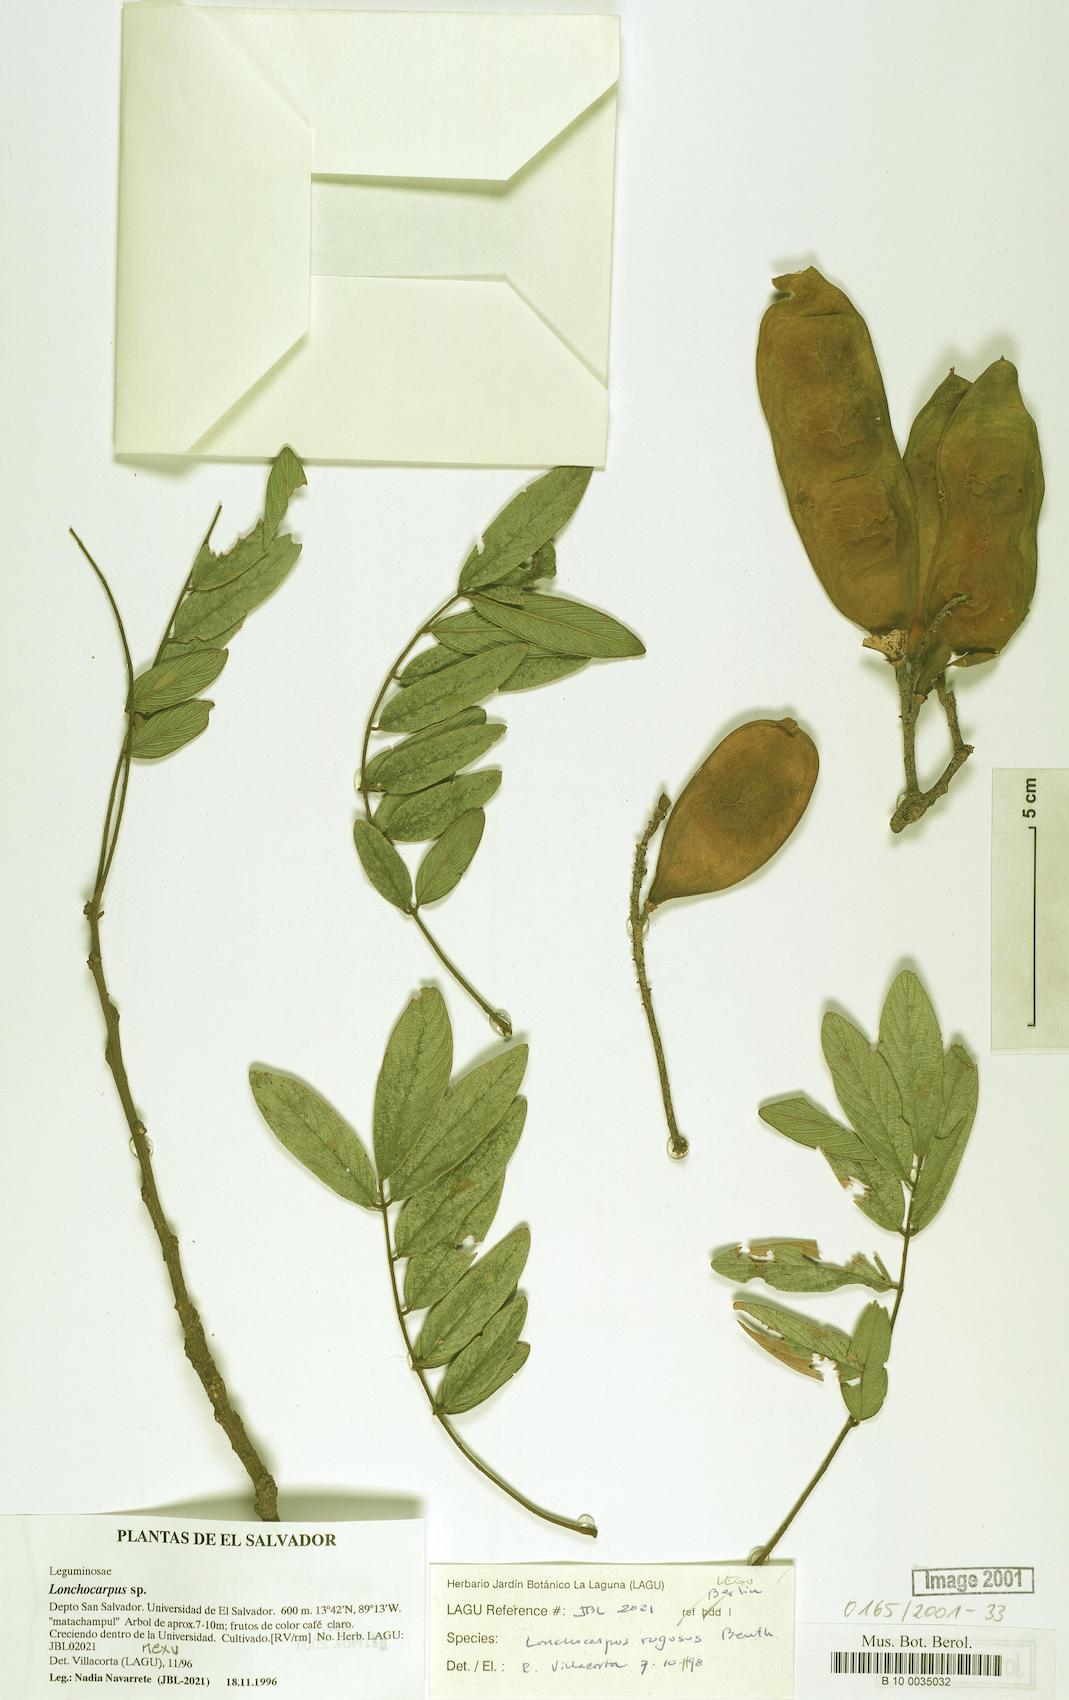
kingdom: Plantae
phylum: Tracheophyta
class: Magnoliopsida
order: Fabales
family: Fabaceae
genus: Lonchocarpus
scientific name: Lonchocarpus rugosus
